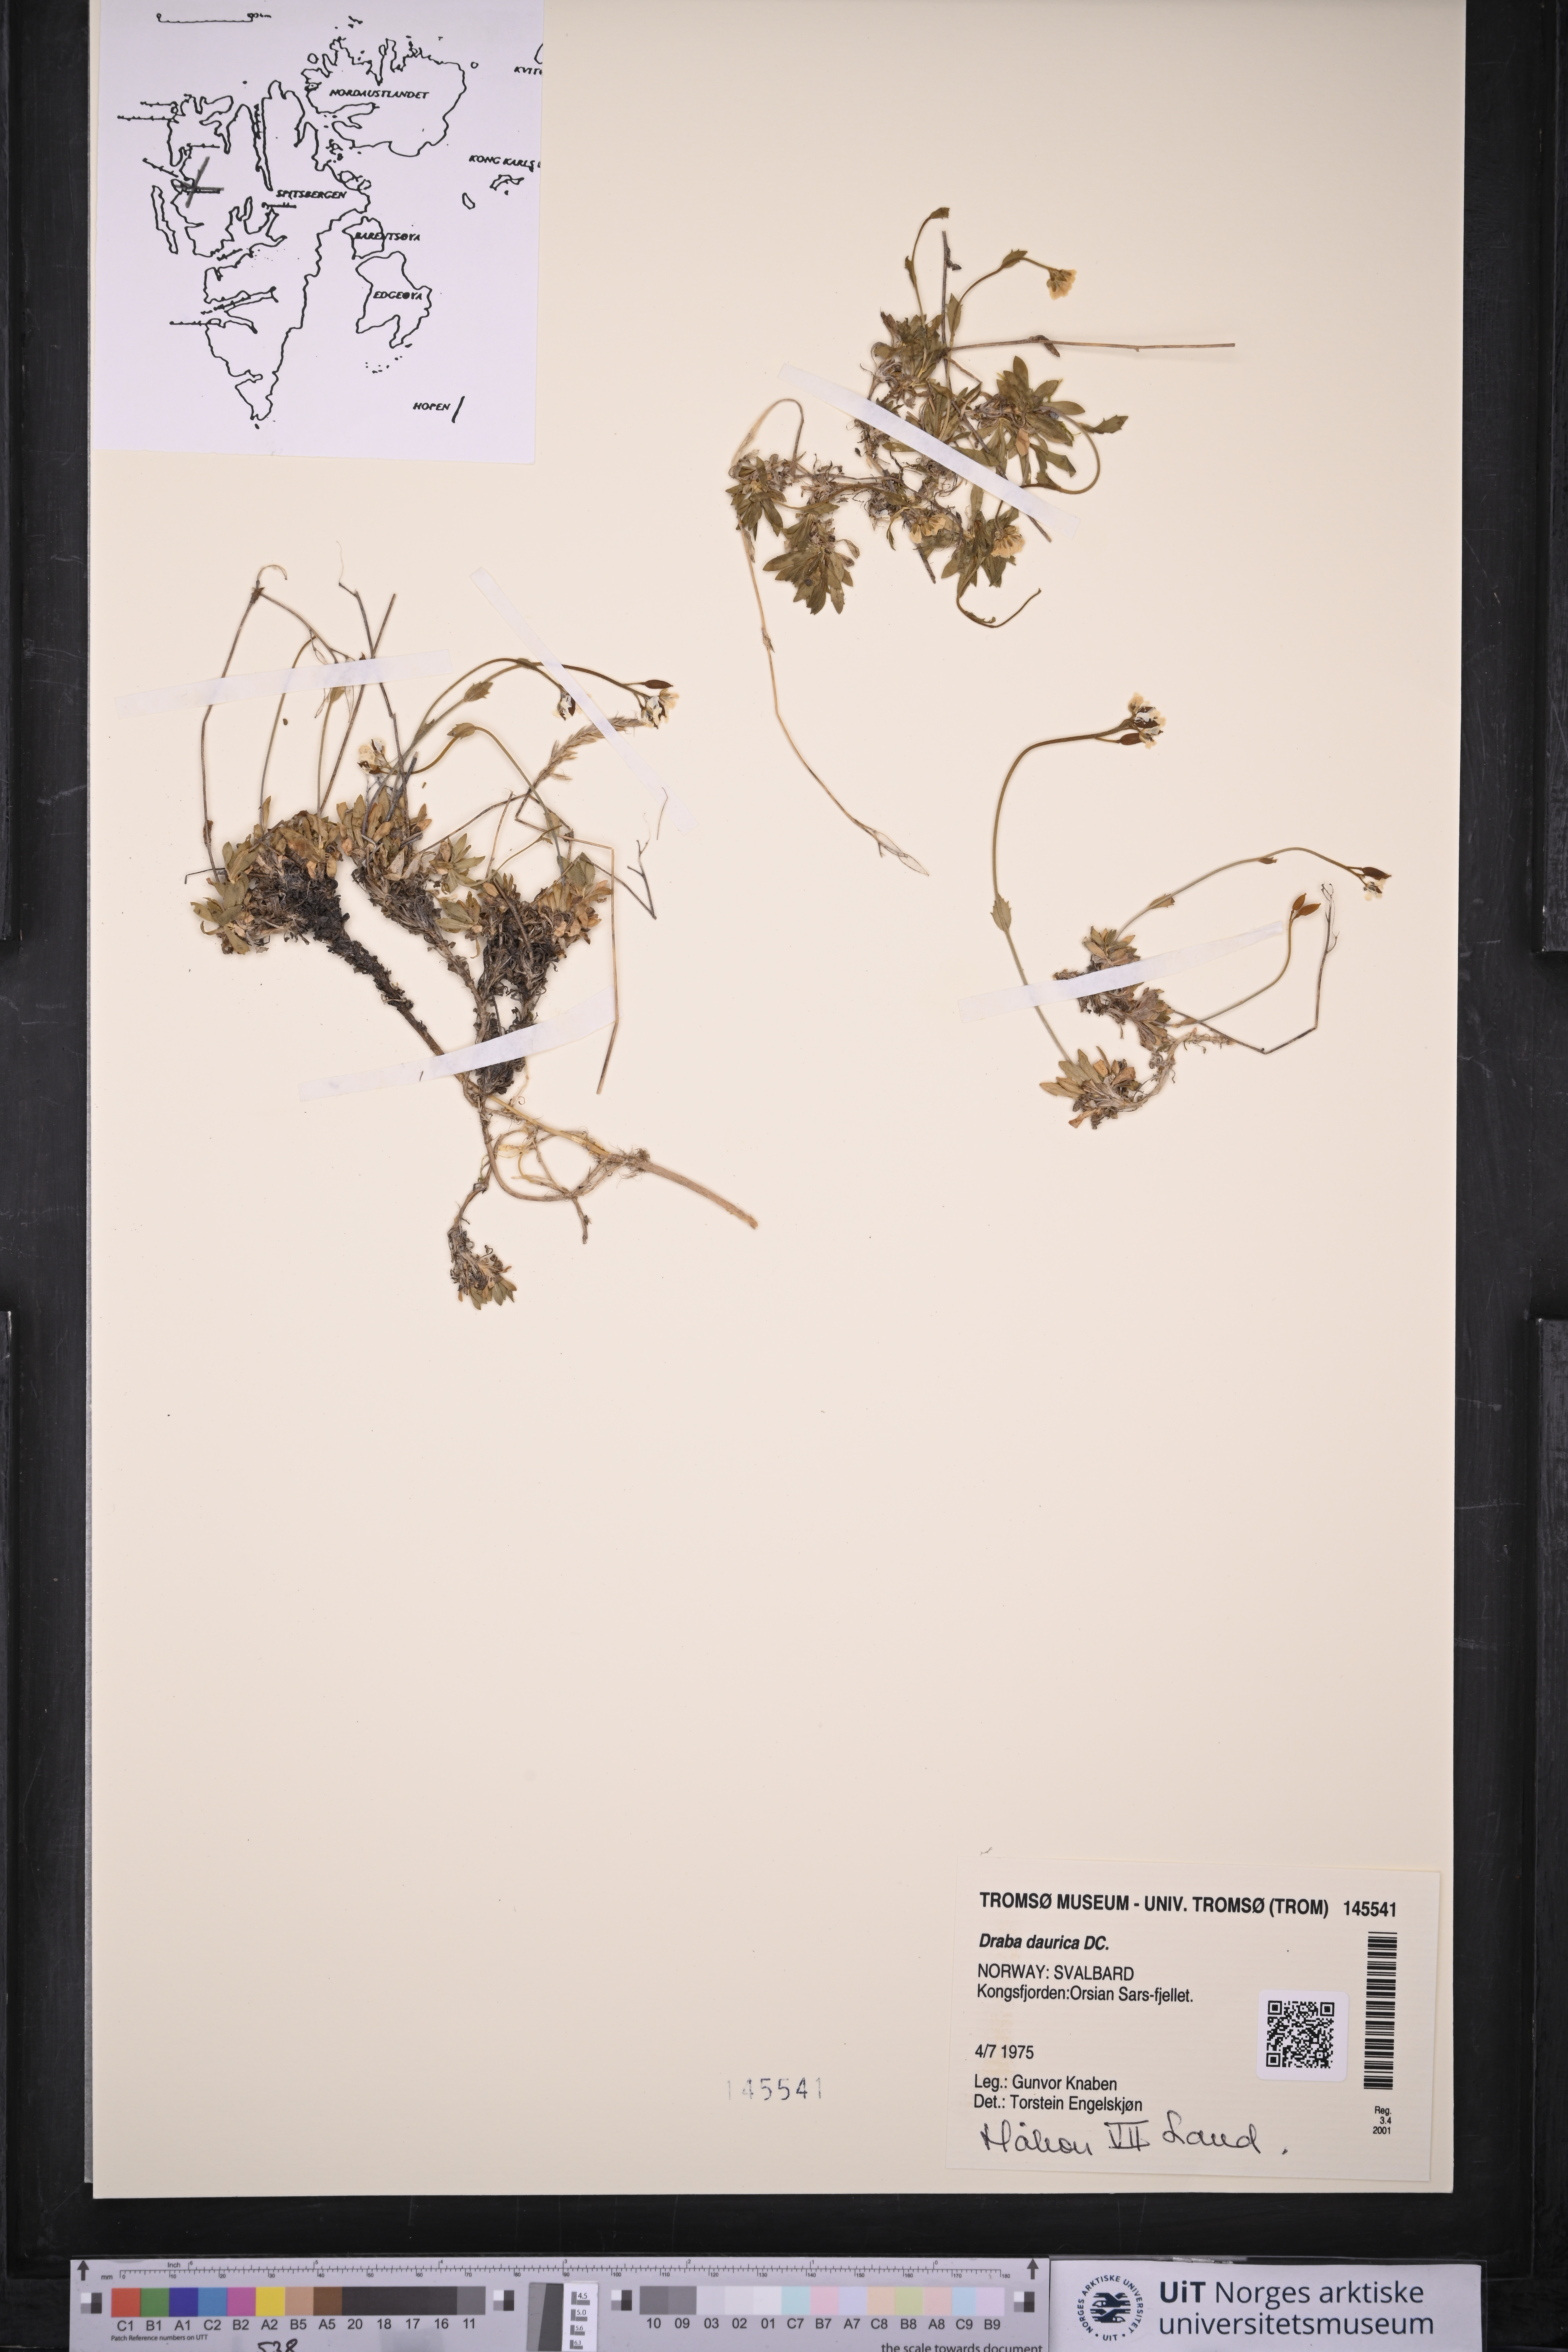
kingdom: Plantae
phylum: Tracheophyta
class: Magnoliopsida
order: Brassicales
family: Brassicaceae
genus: Draba
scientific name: Draba glabella
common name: Glaucous draba
